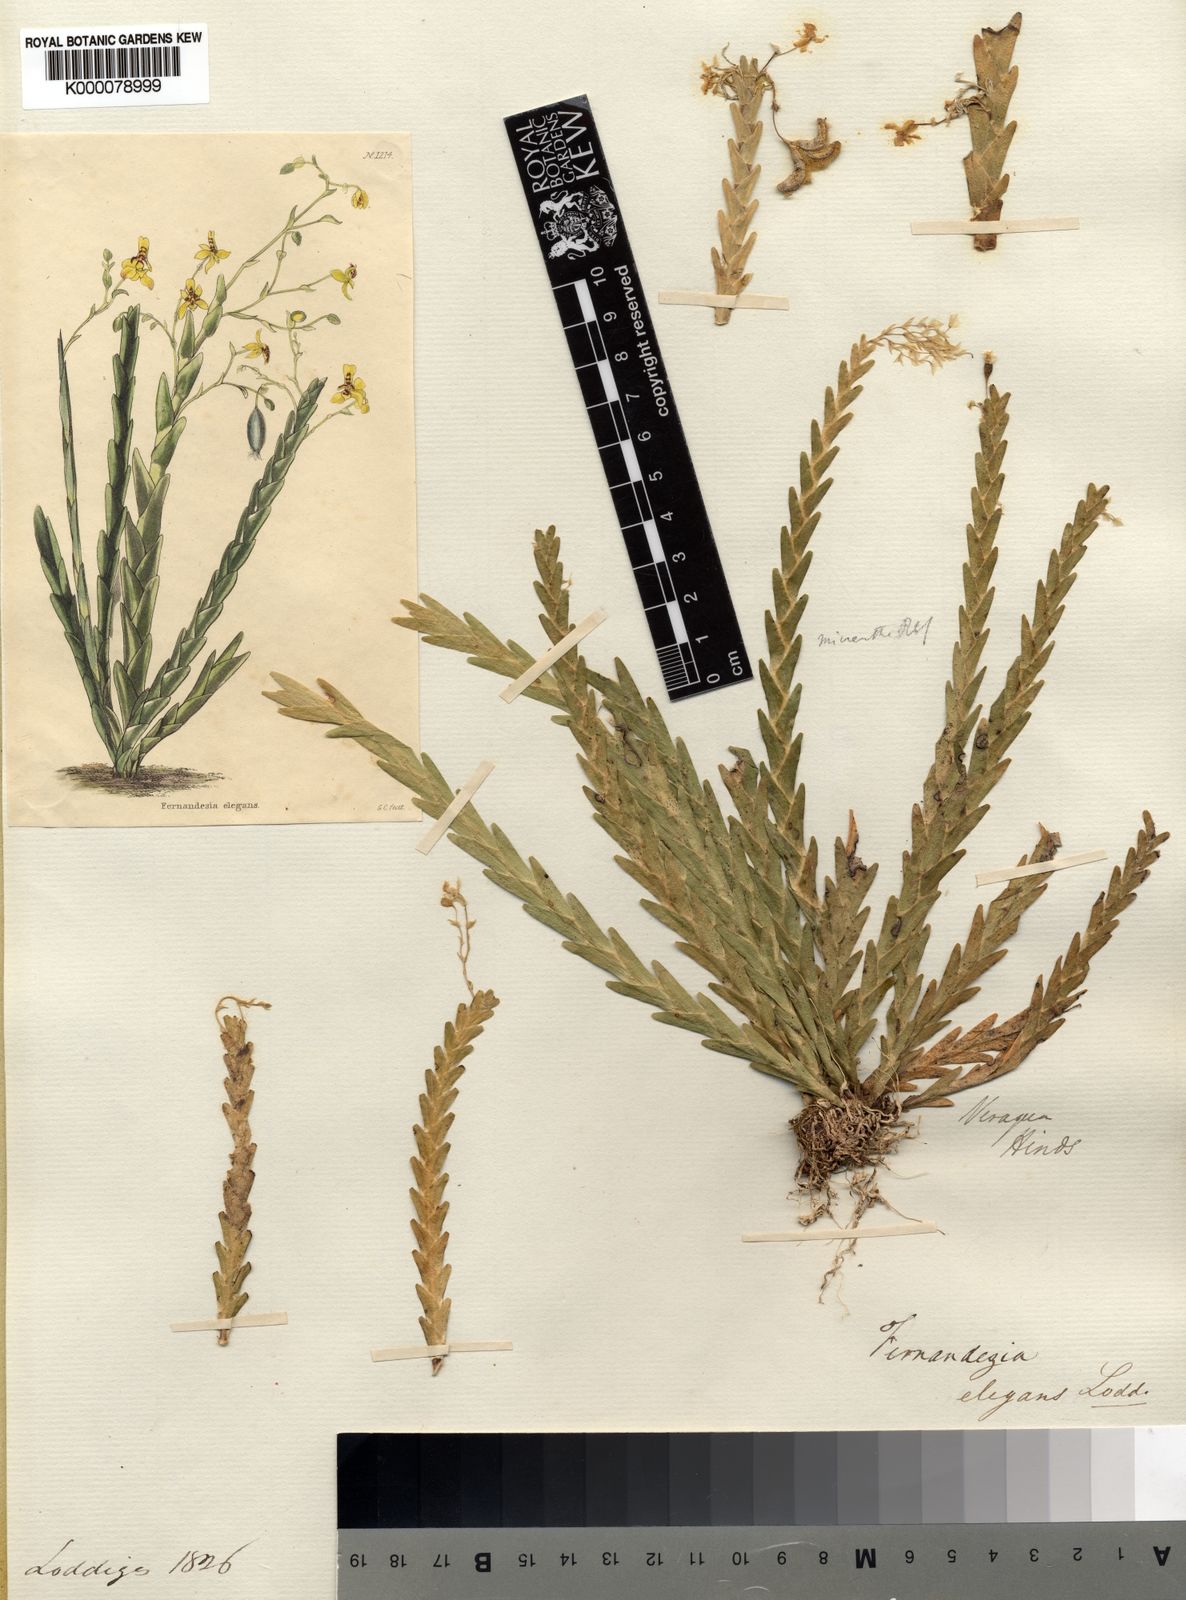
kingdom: Plantae
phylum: Tracheophyta
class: Liliopsida
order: Asparagales
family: Orchidaceae
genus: Lockhartia
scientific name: Lockhartia imbricata
